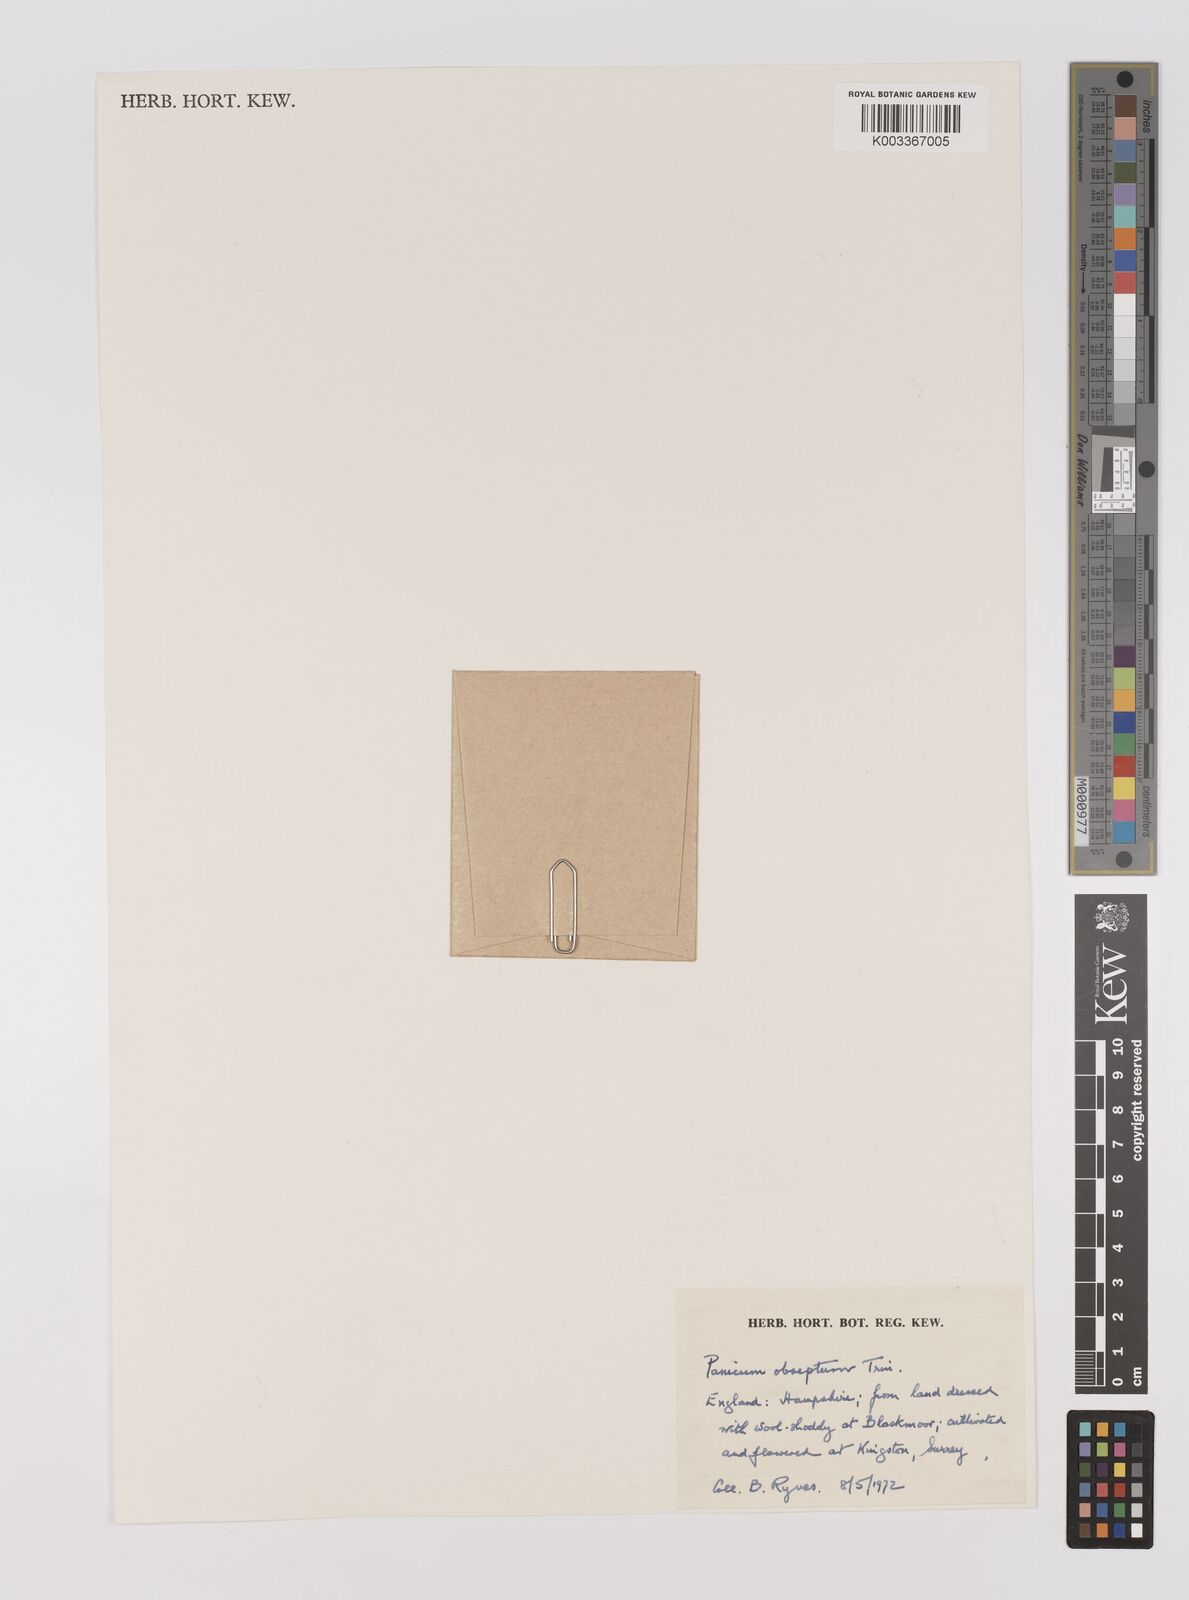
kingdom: Plantae
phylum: Tracheophyta
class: Liliopsida
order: Poales
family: Poaceae
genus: Panicum
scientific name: Panicum obseptum
